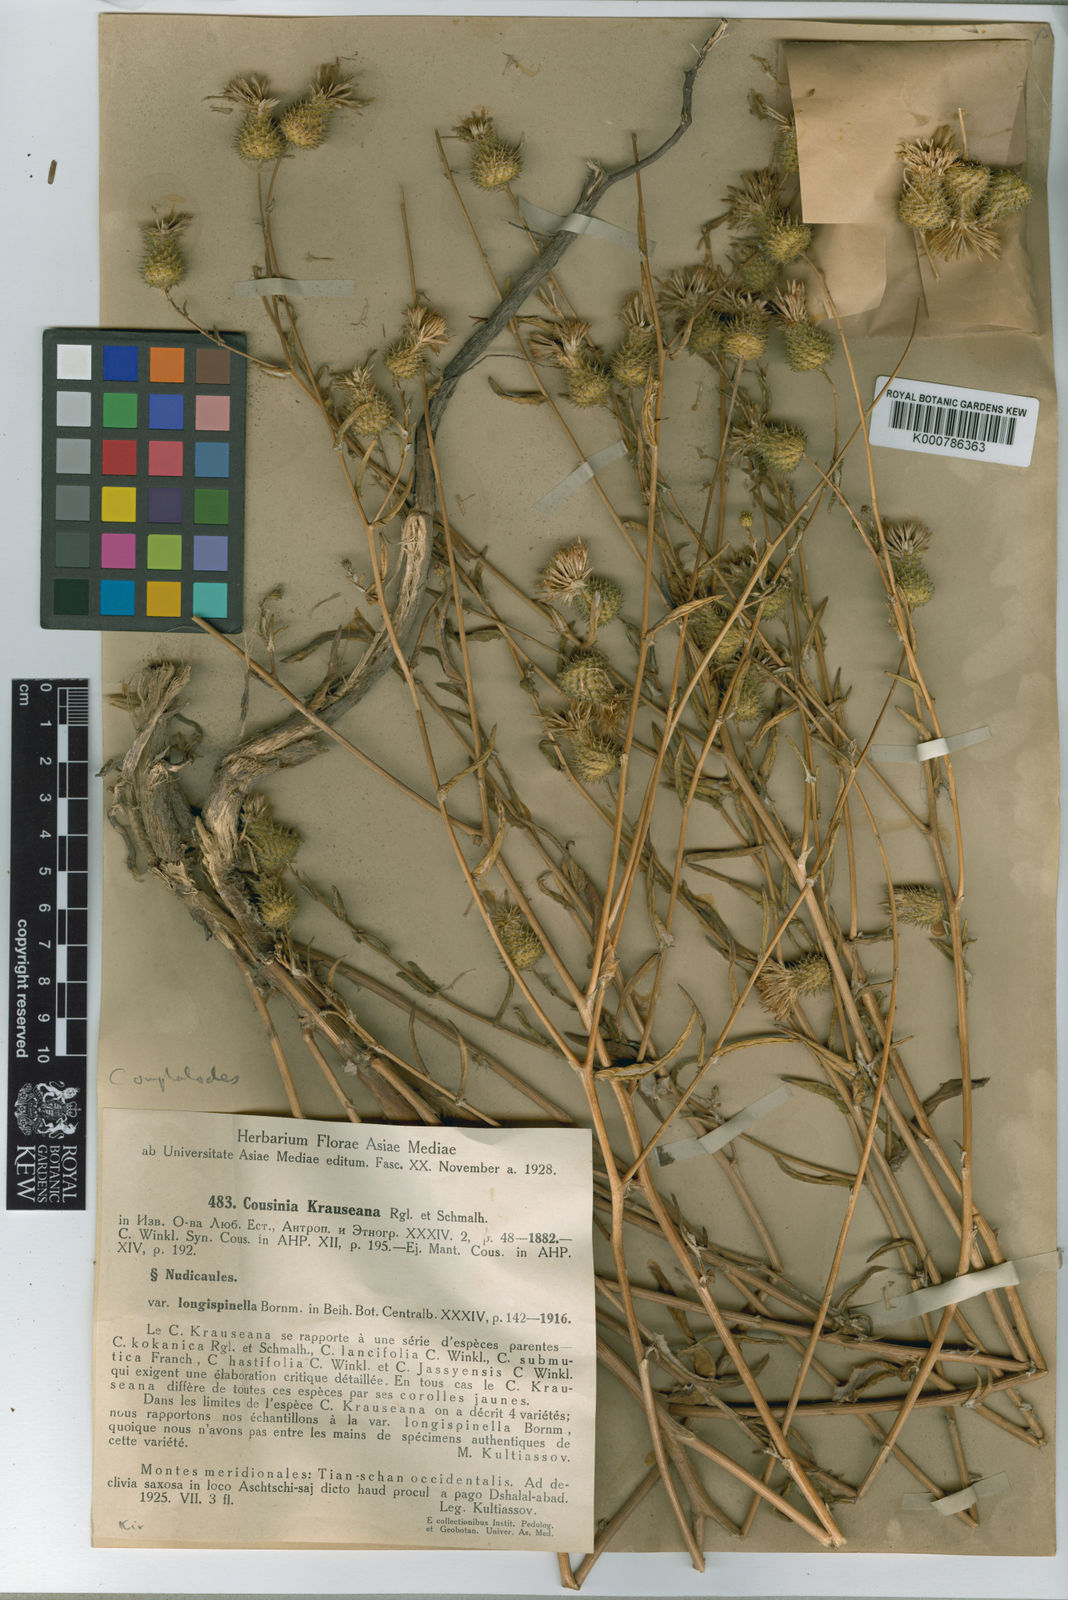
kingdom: Plantae
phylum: Tracheophyta
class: Magnoliopsida
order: Asterales
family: Asteraceae
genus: Cousinia
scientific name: Cousinia omphalodes
